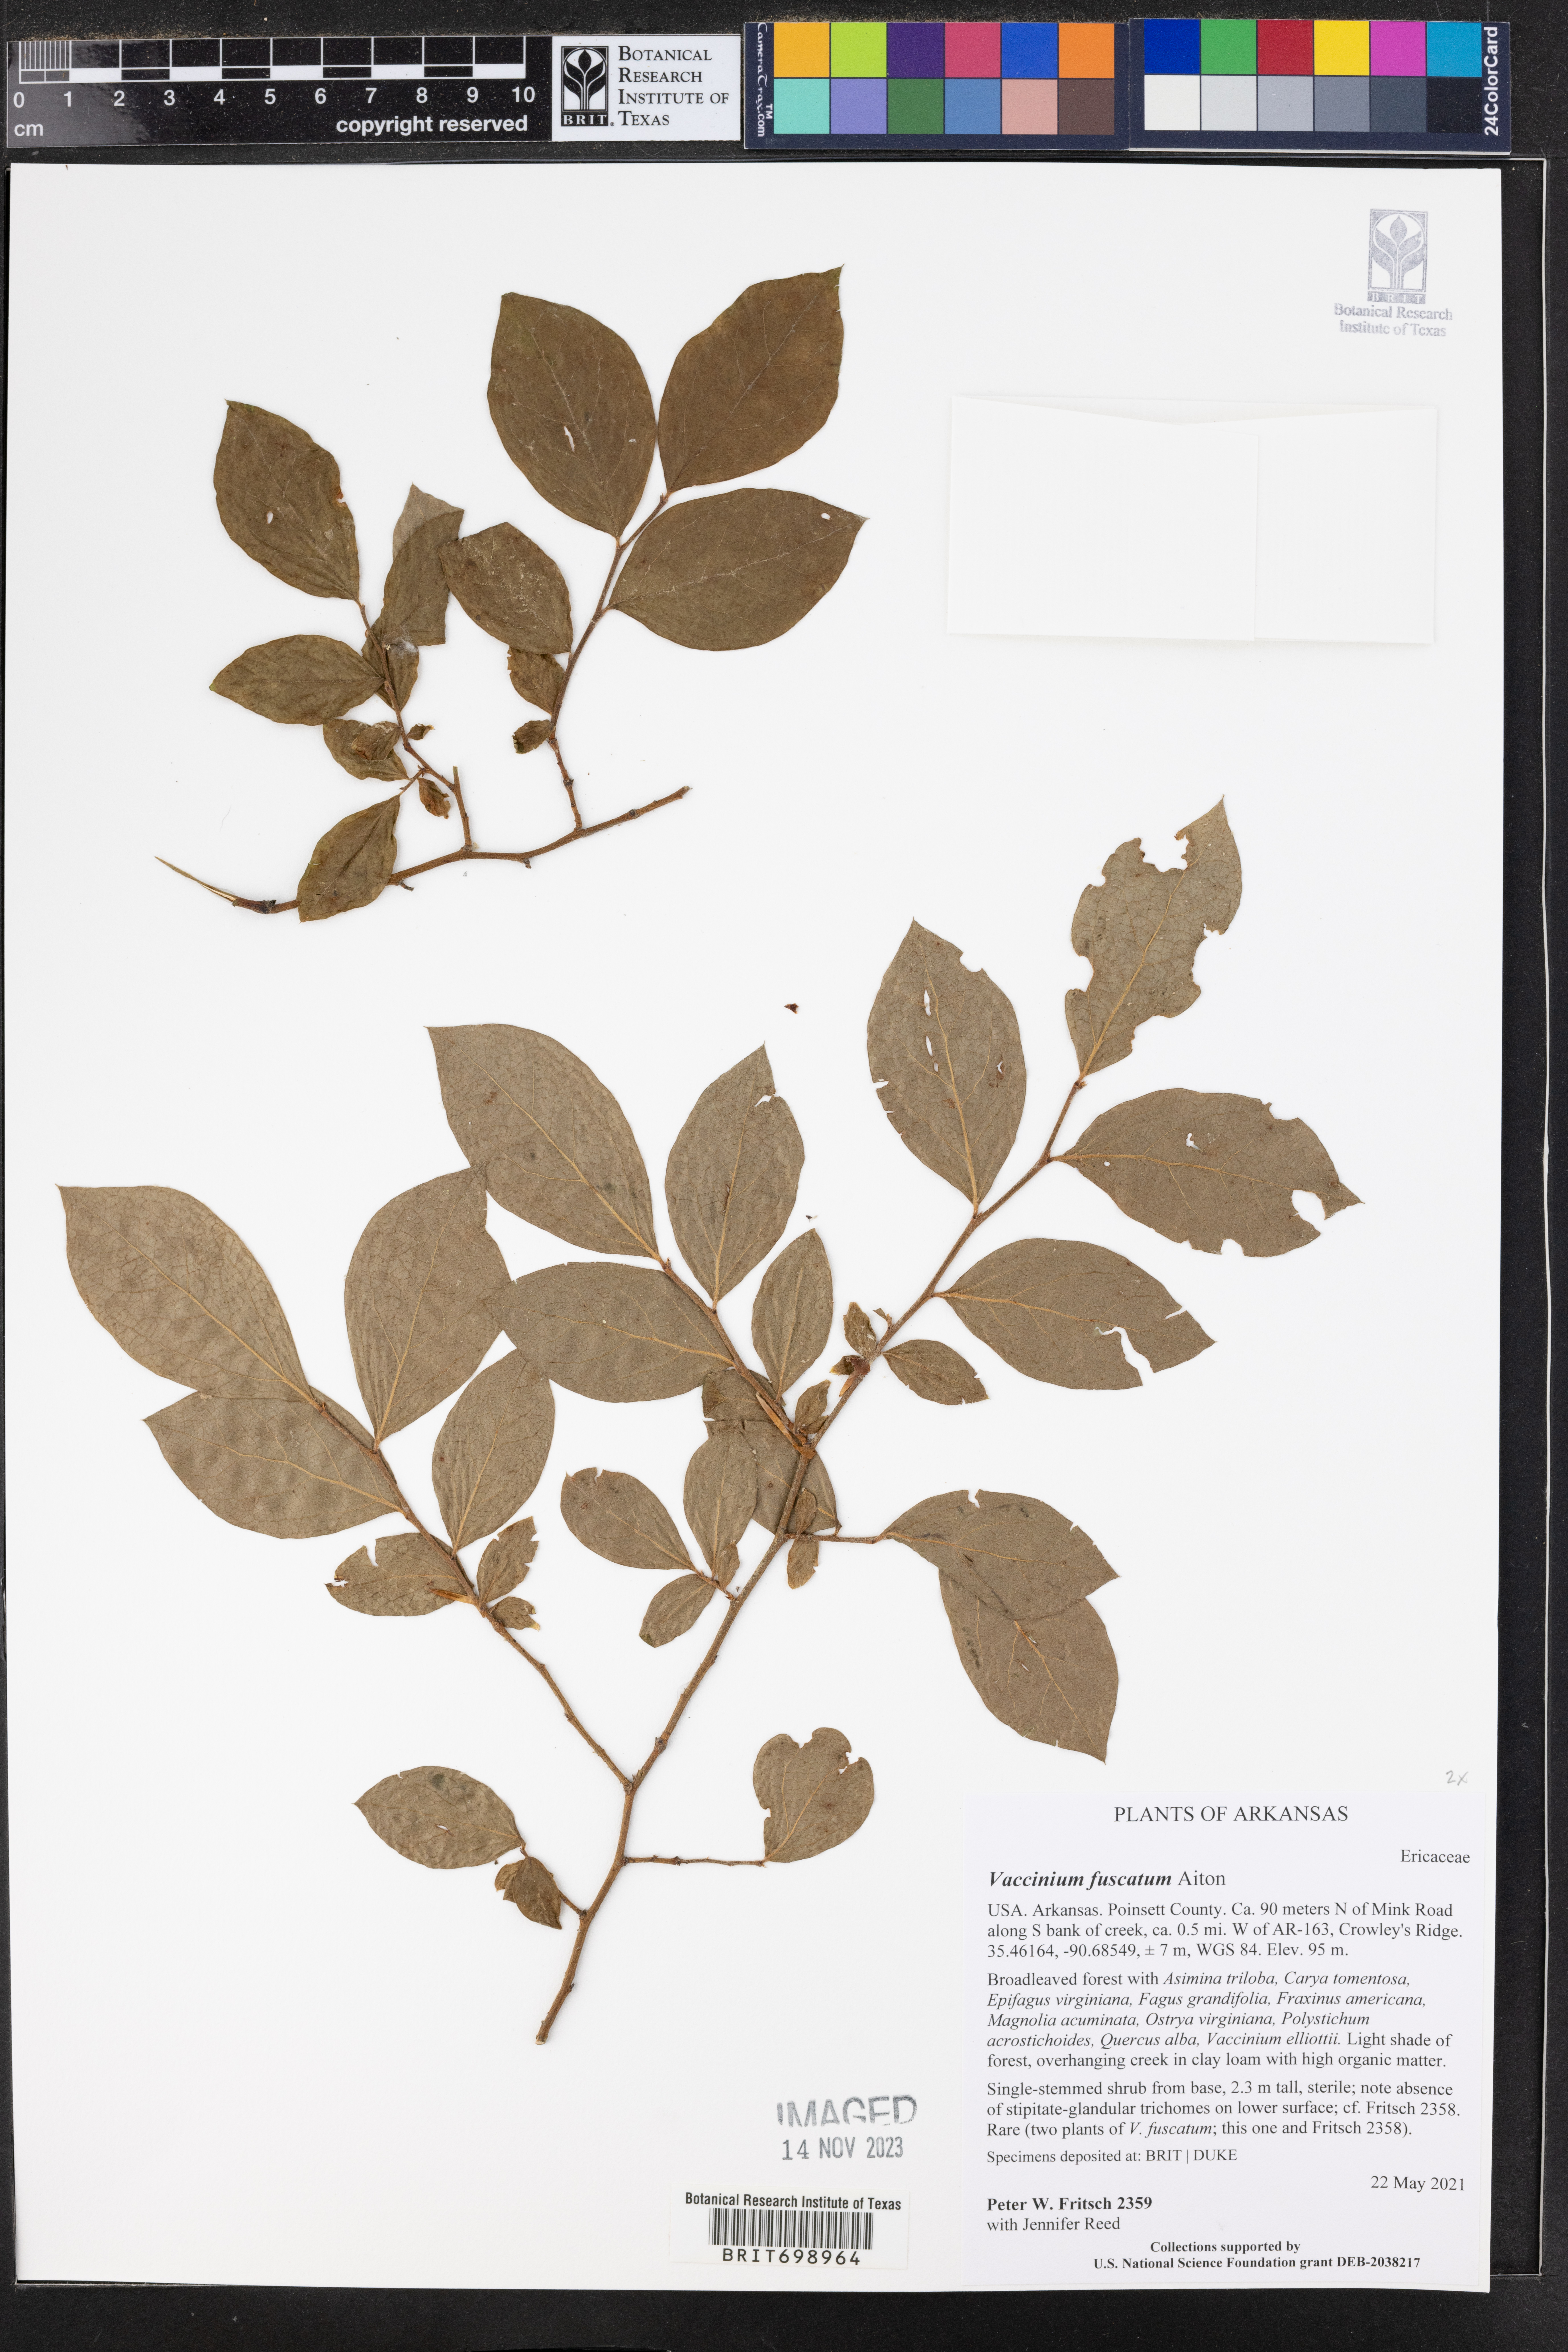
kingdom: Plantae
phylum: Tracheophyta
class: Magnoliopsida
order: Ericales
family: Ericaceae
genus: Vaccinium
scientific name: Vaccinium corymbosum
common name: Blueberry
